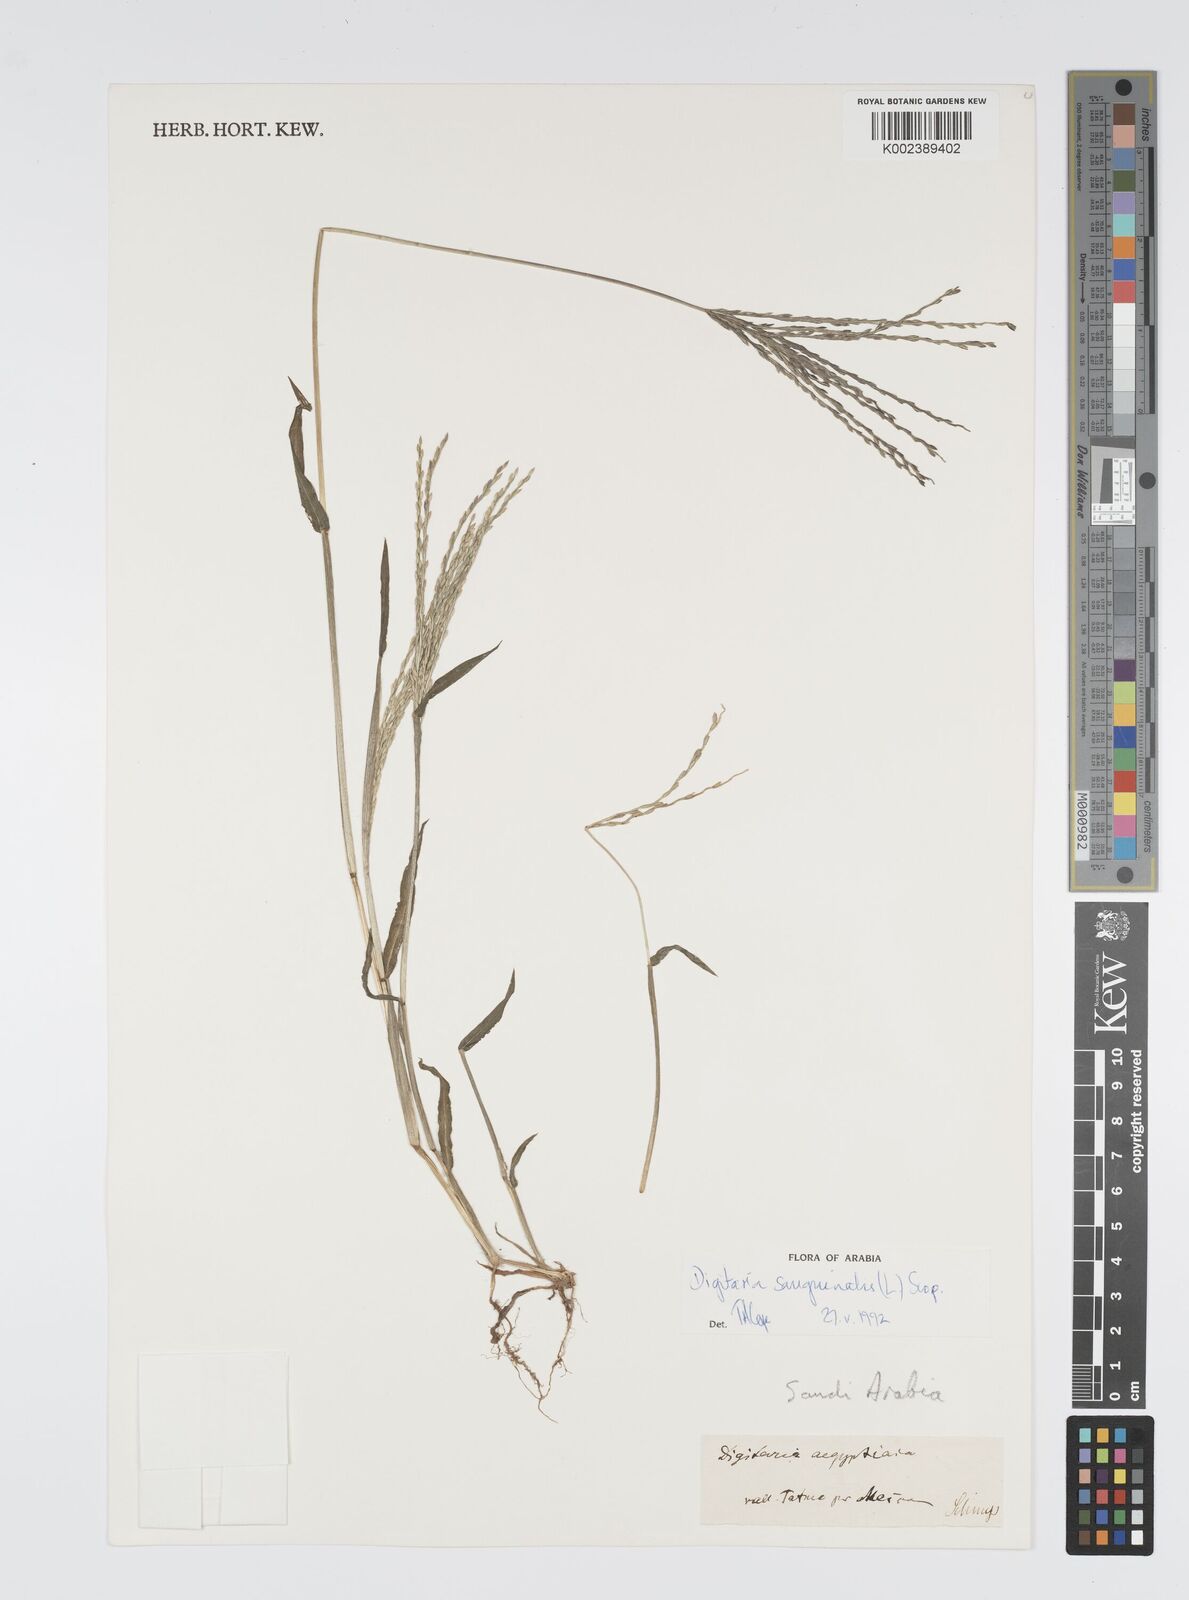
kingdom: Plantae
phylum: Tracheophyta
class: Liliopsida
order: Poales
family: Poaceae
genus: Digitaria
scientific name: Digitaria sanguinalis
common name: Hairy crabgrass
